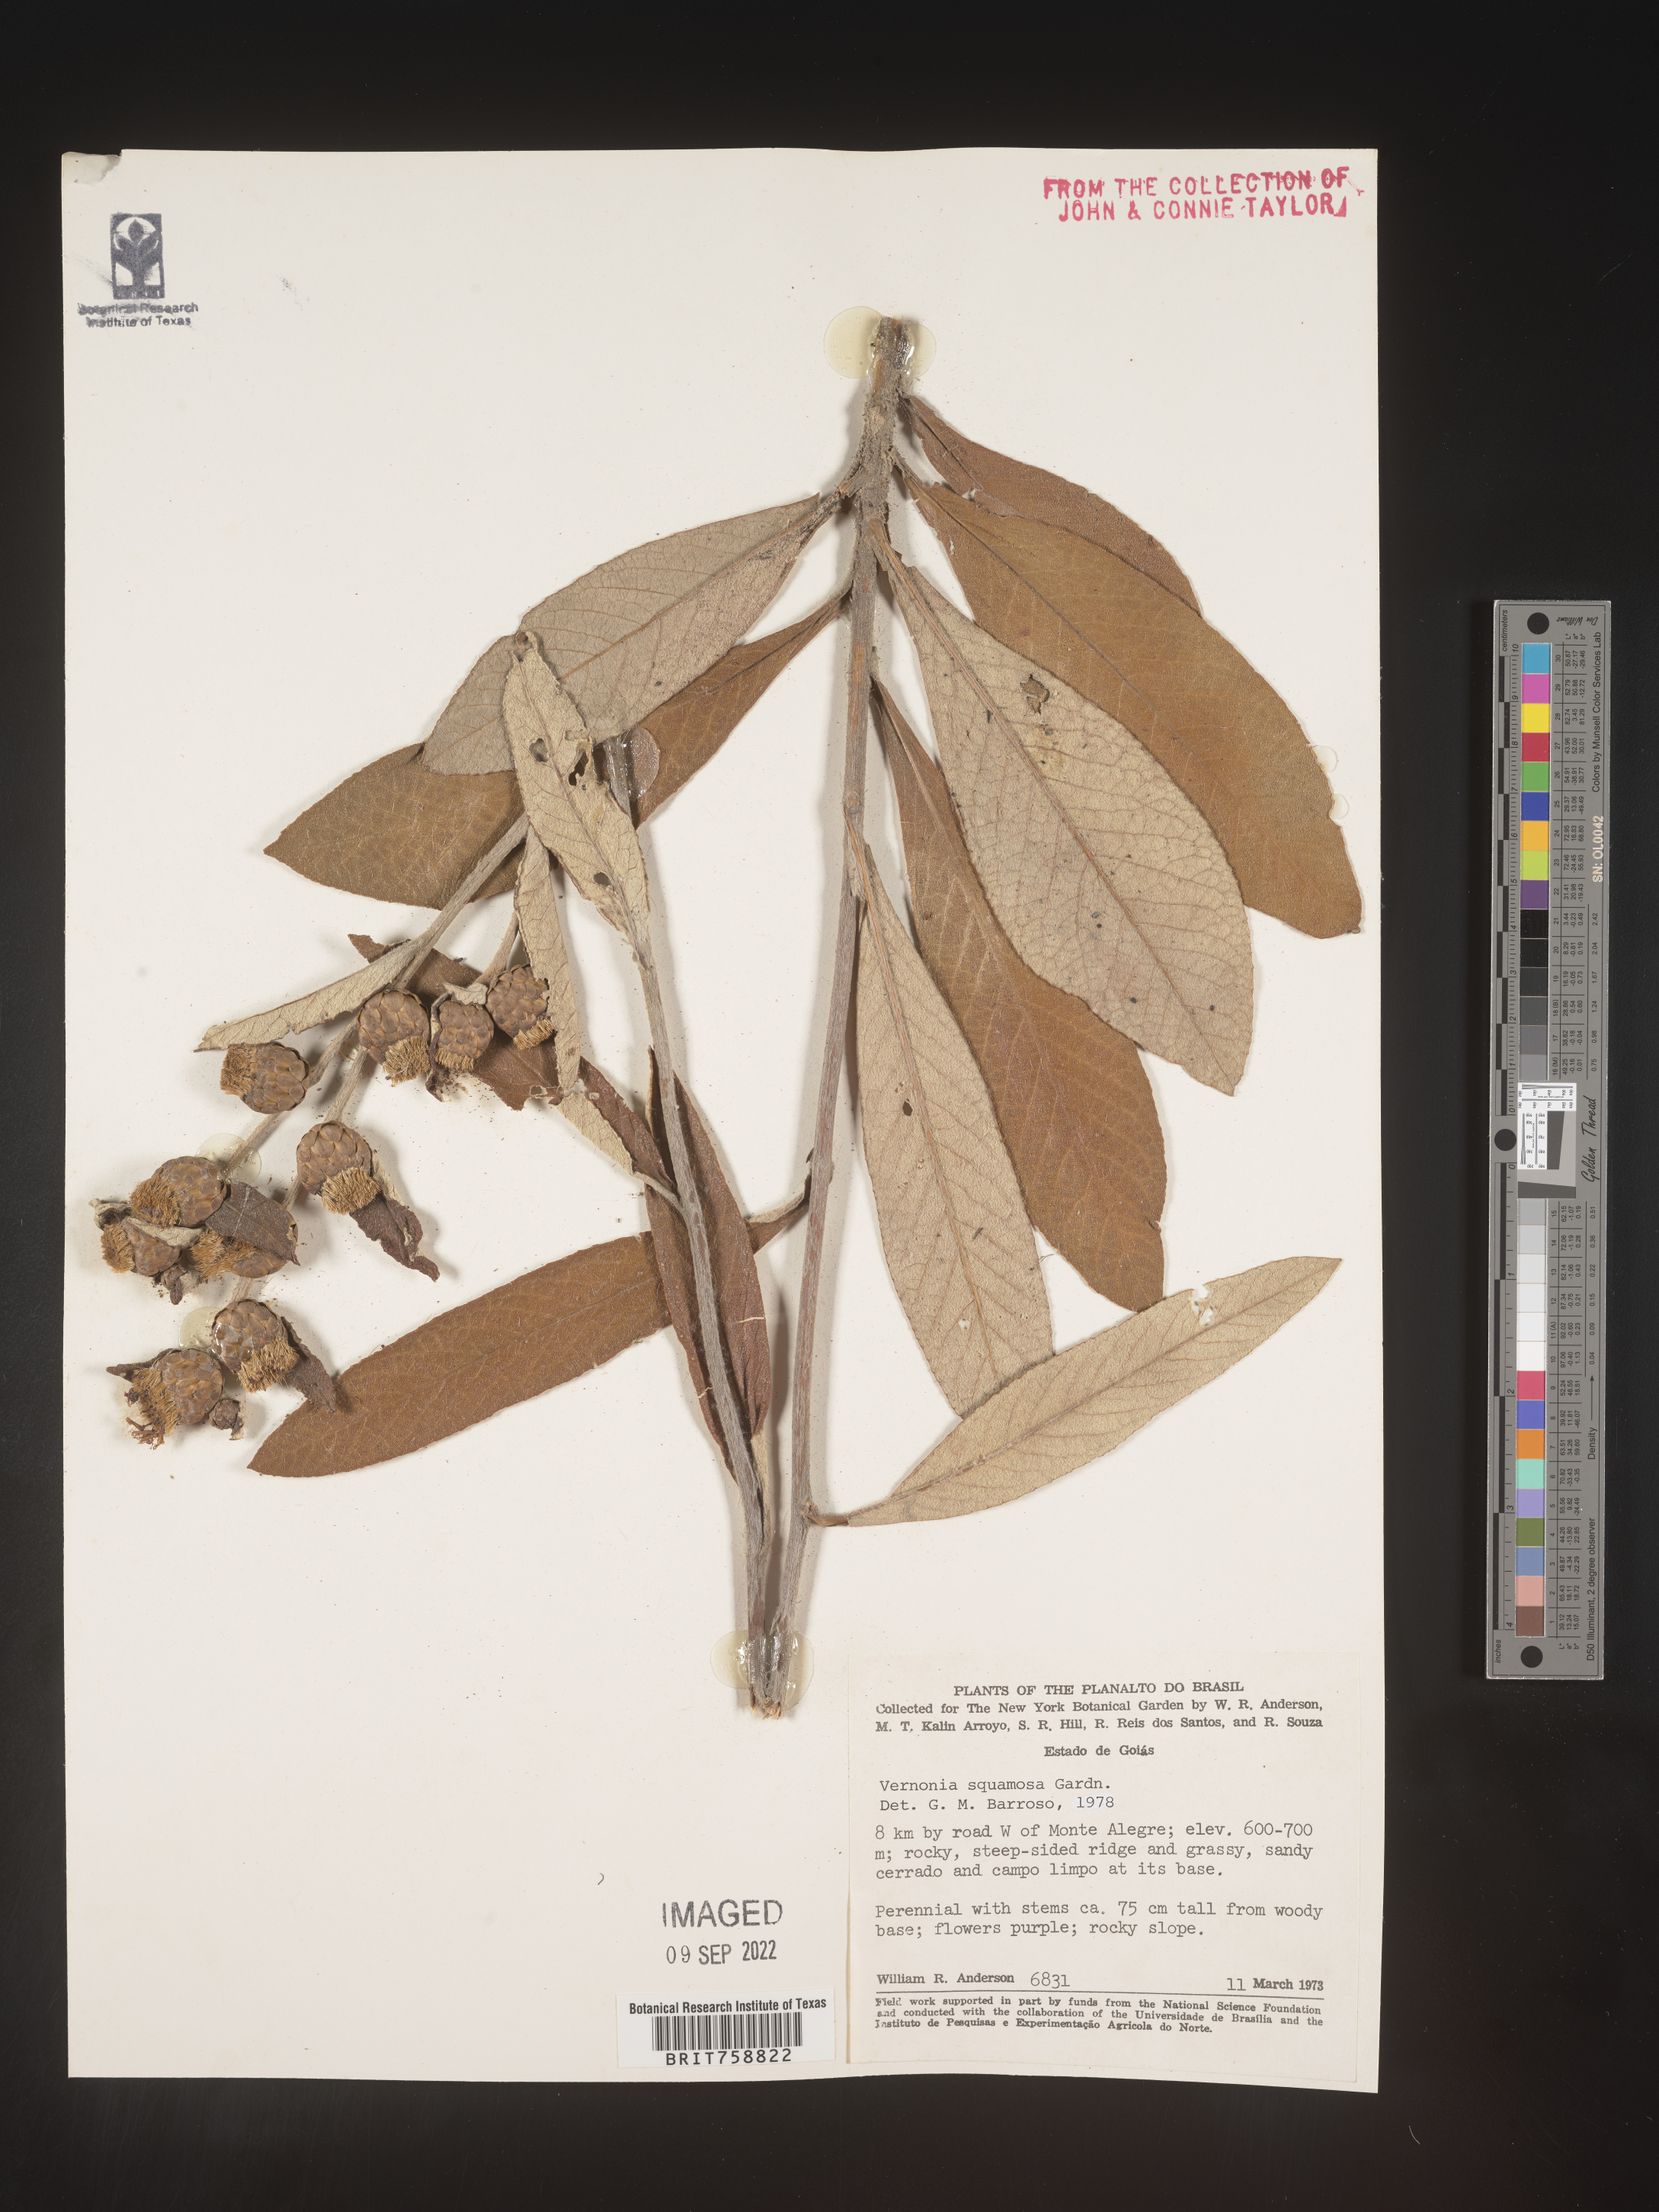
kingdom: Plantae
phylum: Tracheophyta
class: Magnoliopsida
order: Asterales
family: Asteraceae
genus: Vernonia
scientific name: Vernonia
